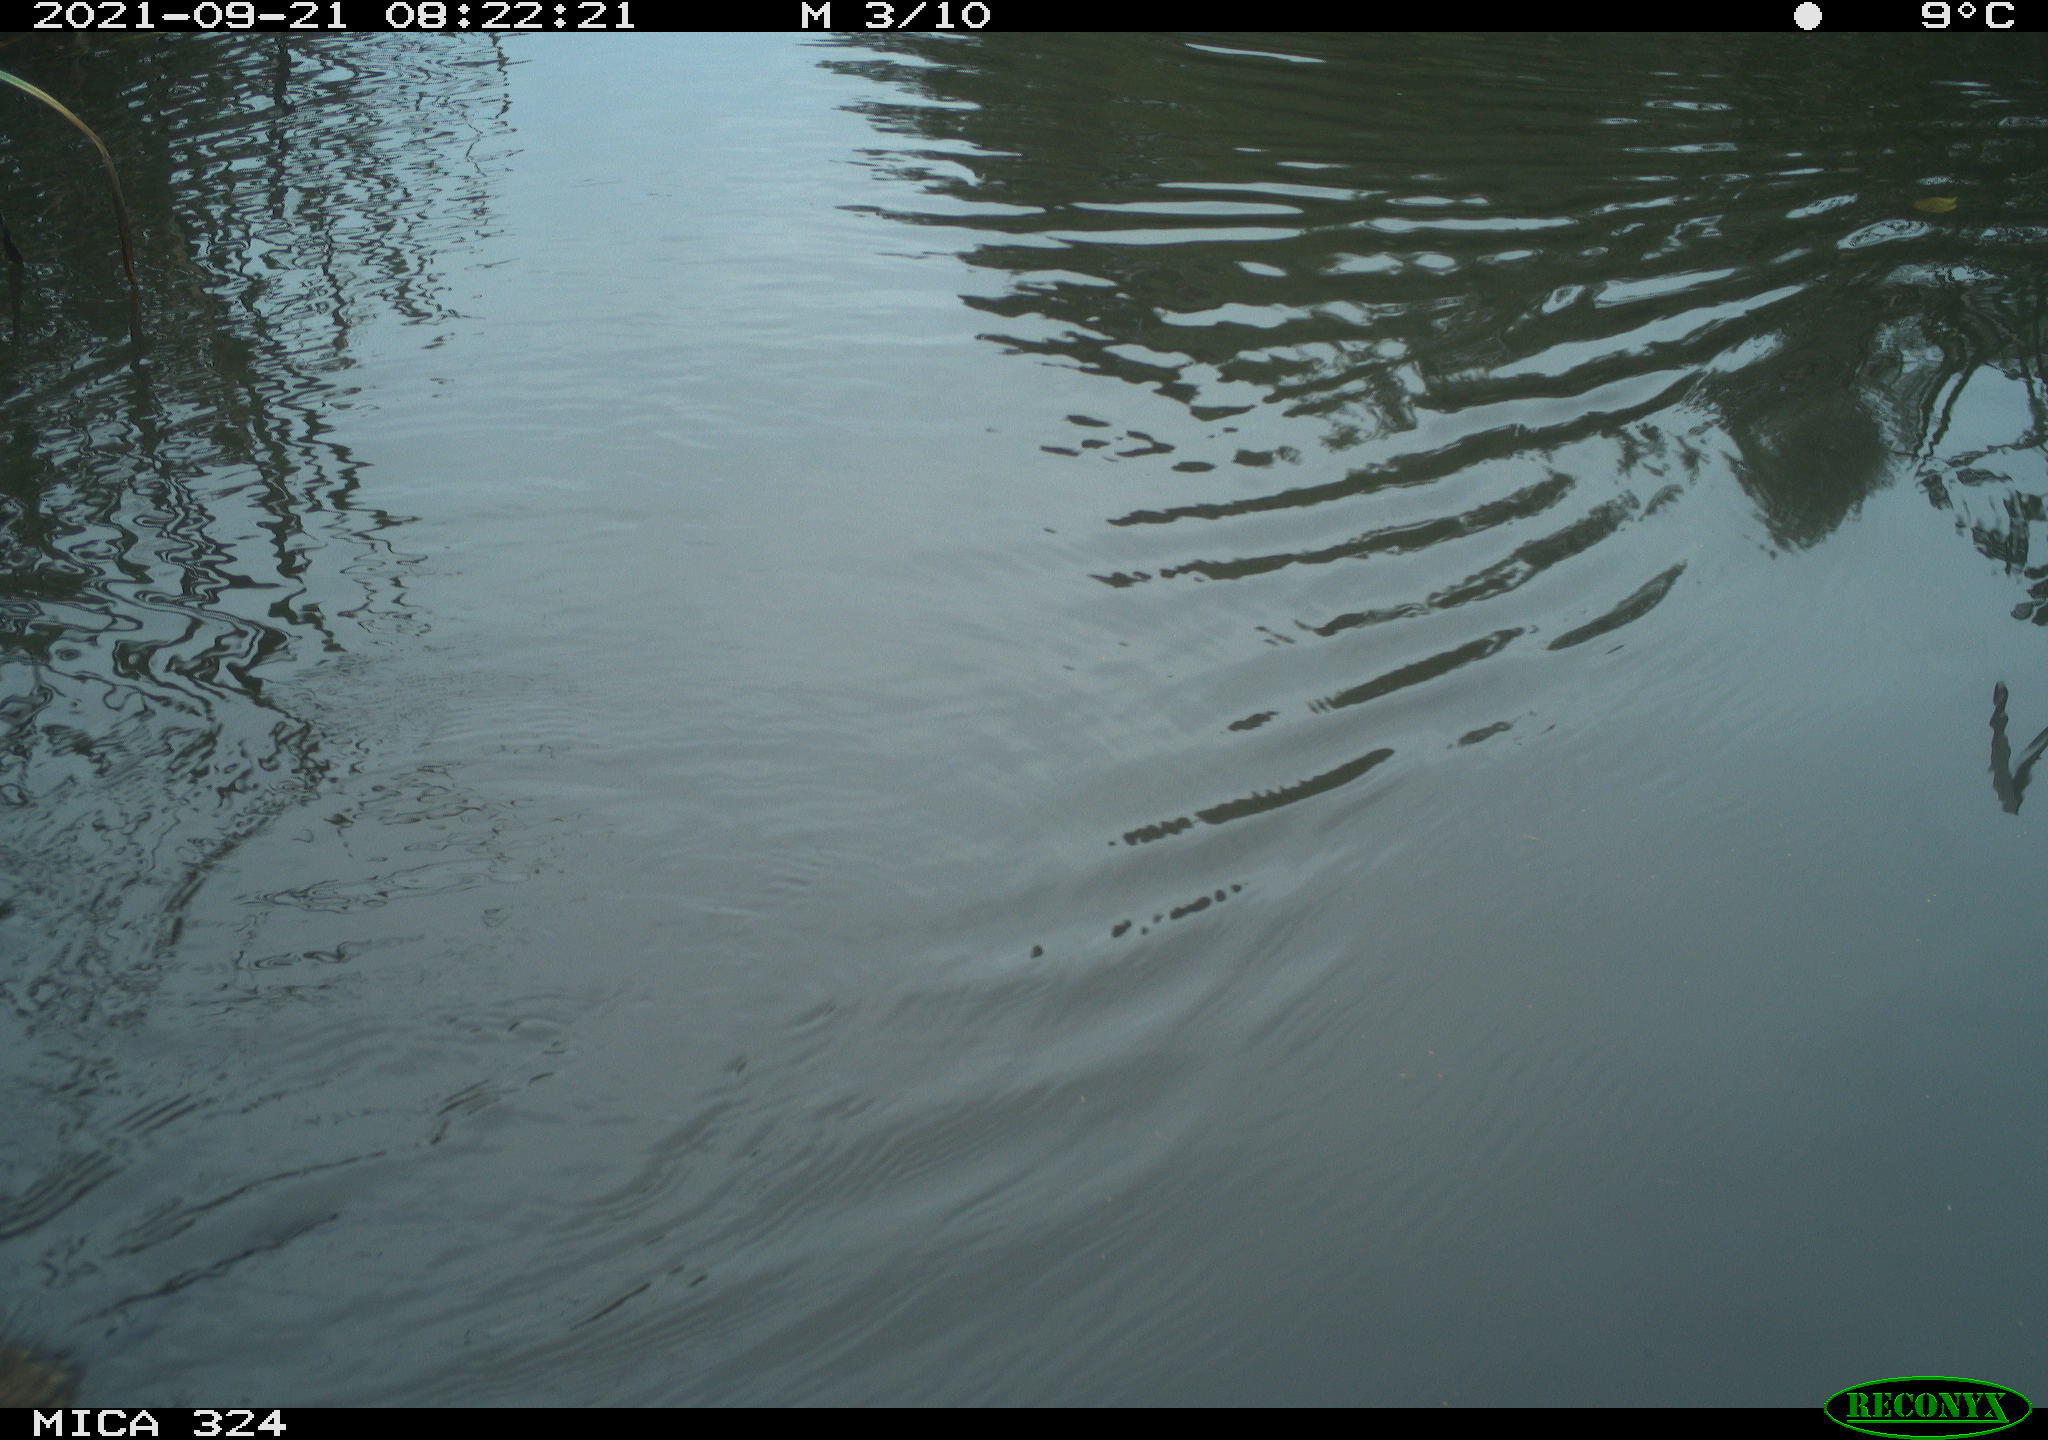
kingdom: Animalia
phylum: Chordata
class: Mammalia
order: Rodentia
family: Cricetidae
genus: Ondatra
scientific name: Ondatra zibethicus
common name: Muskrat
